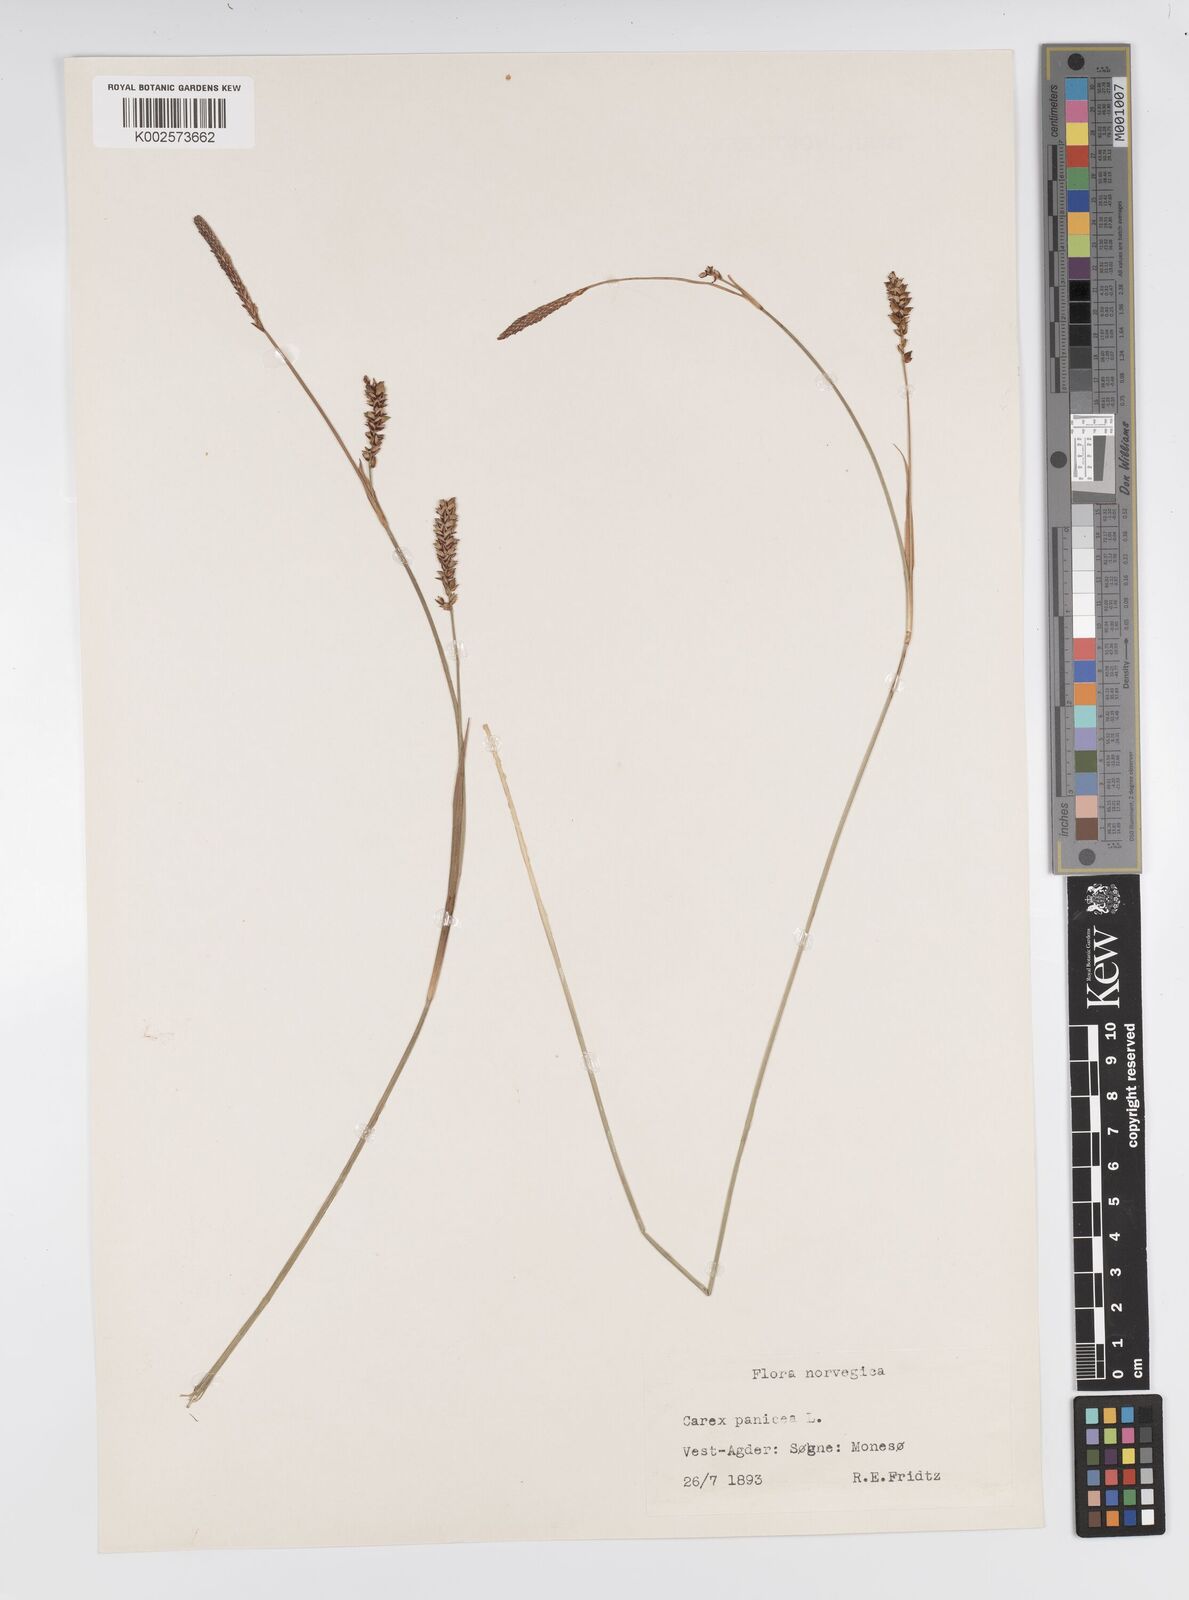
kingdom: Plantae
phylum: Tracheophyta
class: Liliopsida
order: Poales
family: Cyperaceae
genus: Carex
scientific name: Carex panicea
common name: Carnation sedge
